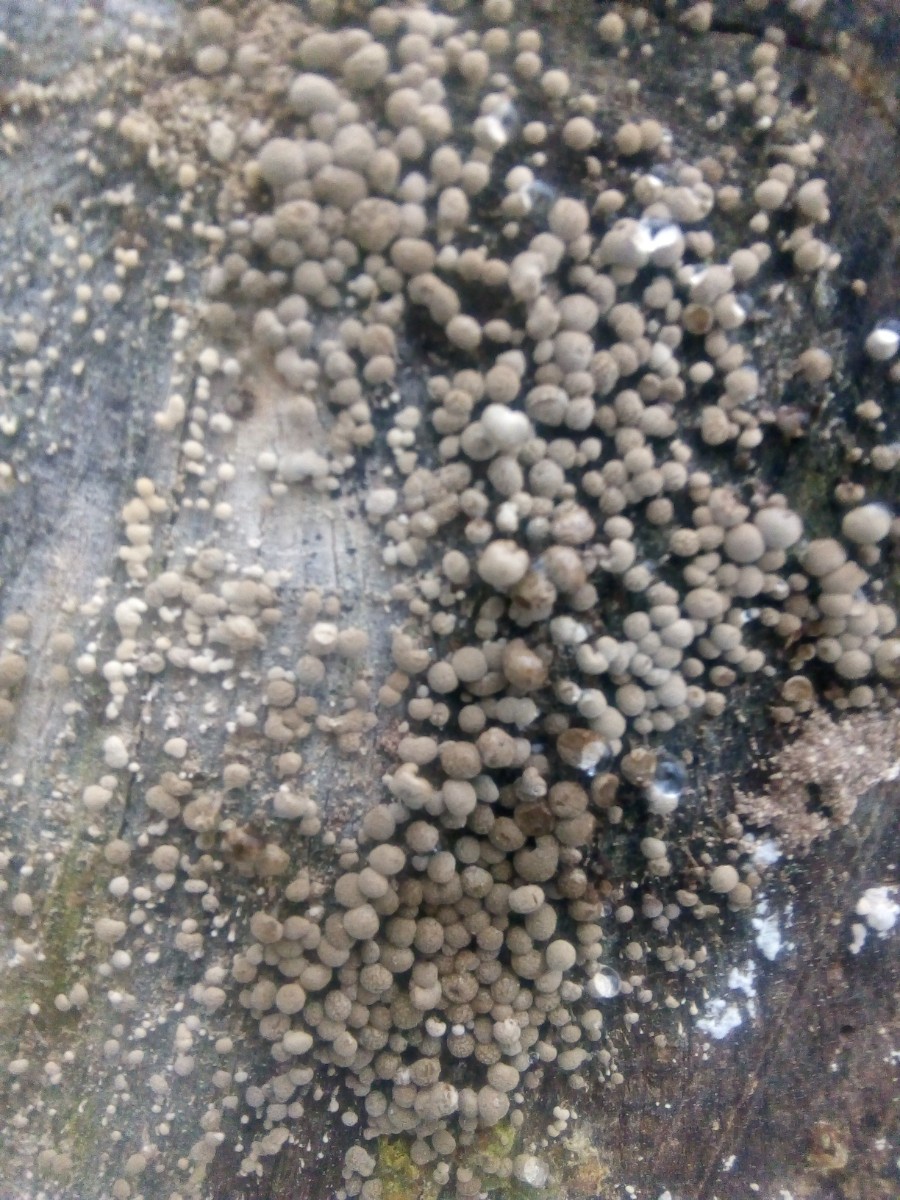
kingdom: Fungi
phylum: Basidiomycota
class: Atractiellomycetes
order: Atractiellales
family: Phleogenaceae
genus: Phleogena
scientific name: Phleogena faginea
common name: pudderkølle
